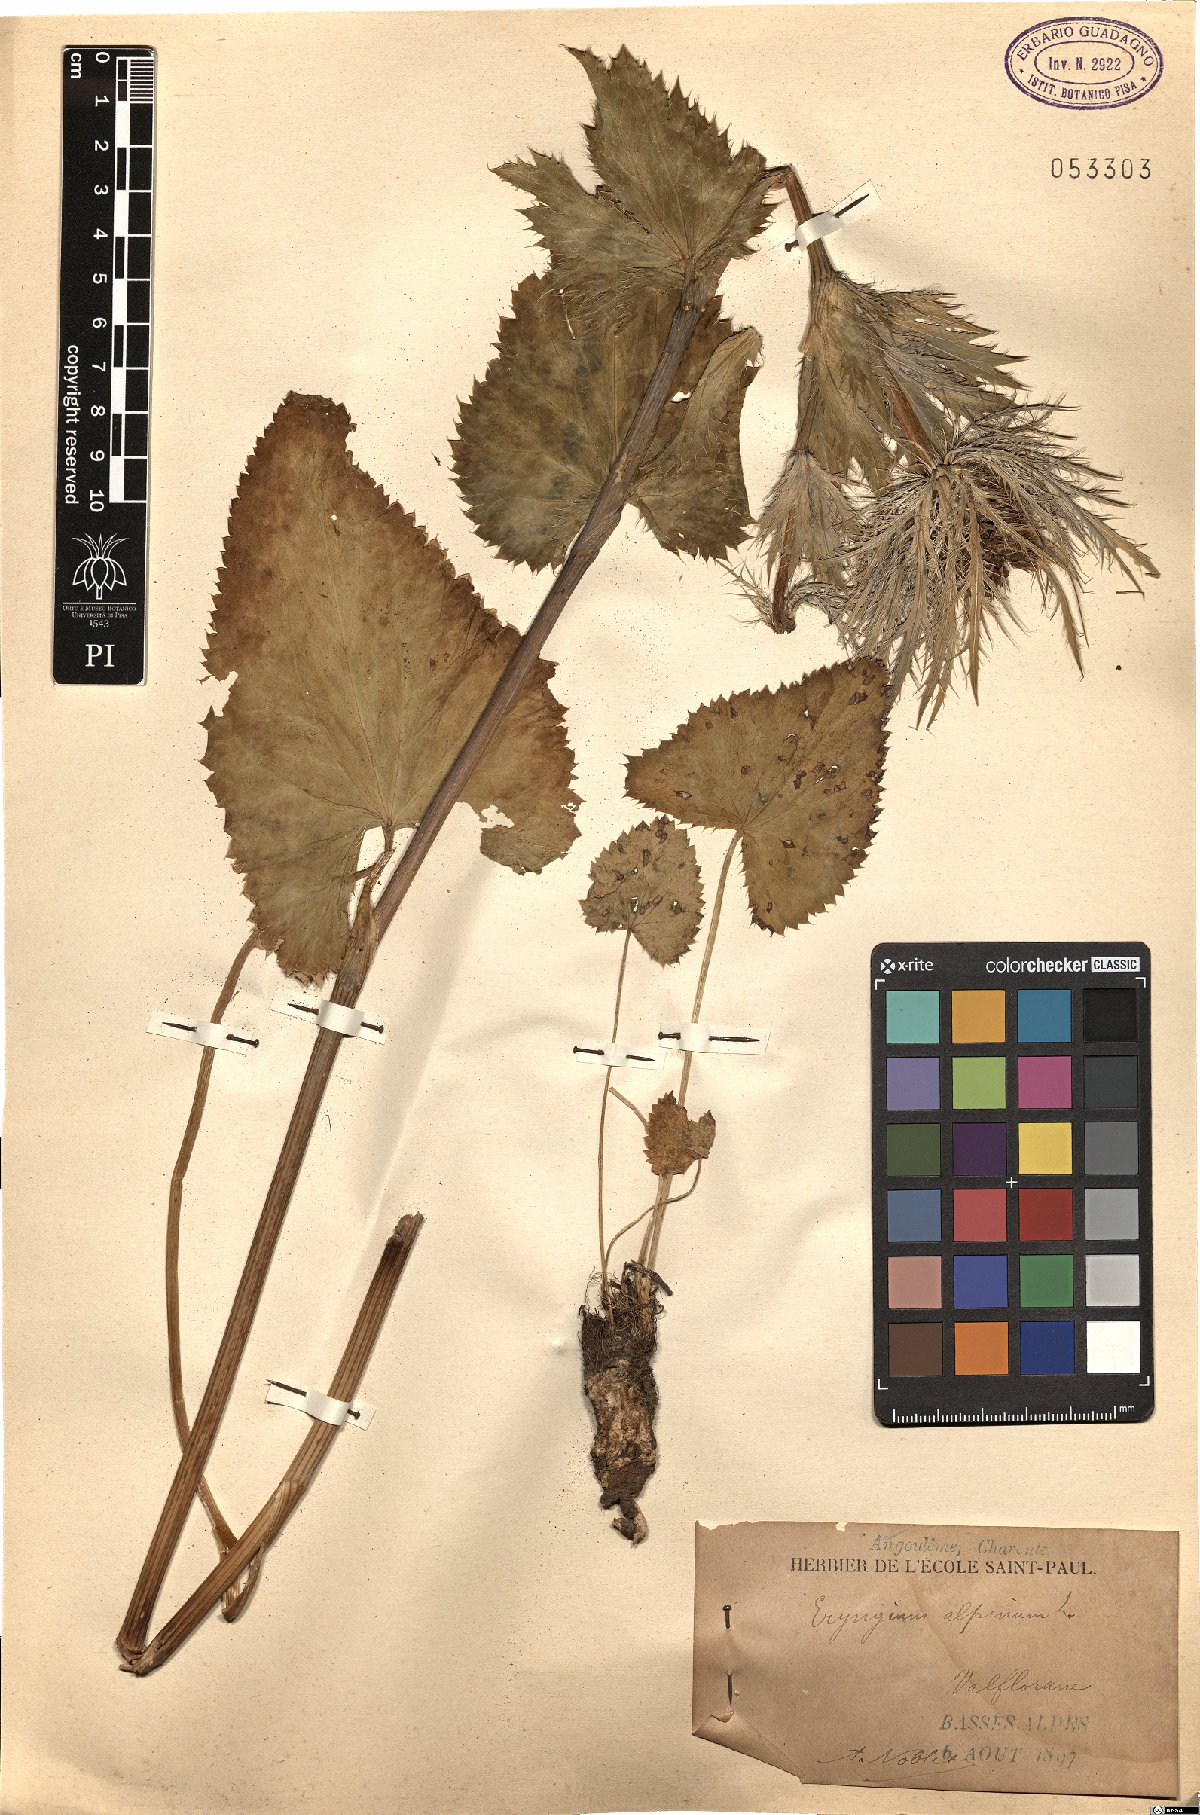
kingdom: Plantae
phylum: Tracheophyta
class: Magnoliopsida
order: Apiales
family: Apiaceae
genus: Eryngium
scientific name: Eryngium alpinum
